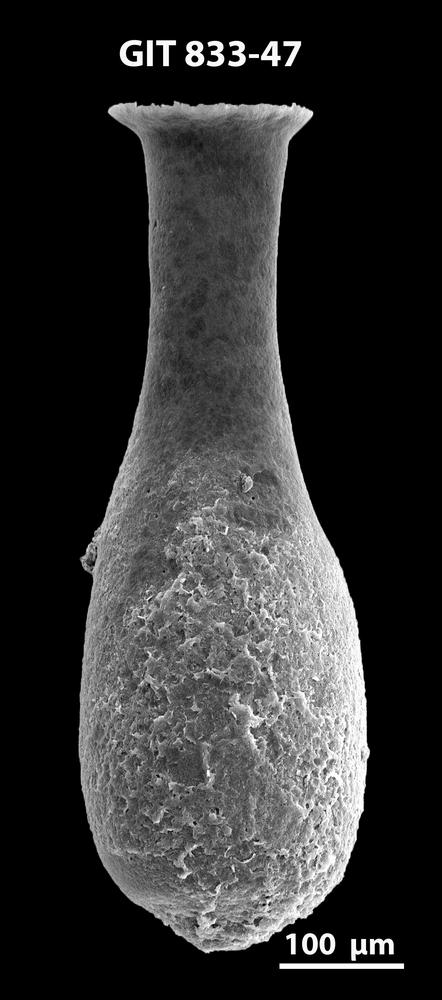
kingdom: Animalia
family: Lagenochitinidae
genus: Lagenochitina
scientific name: Lagenochitina megaesthonica
